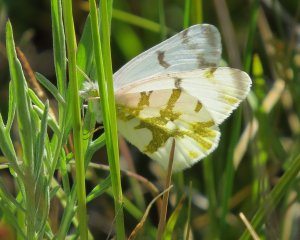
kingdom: Animalia
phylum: Arthropoda
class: Insecta
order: Lepidoptera
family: Pieridae
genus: Euchloe
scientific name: Euchloe olympia
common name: Olympia Marble
